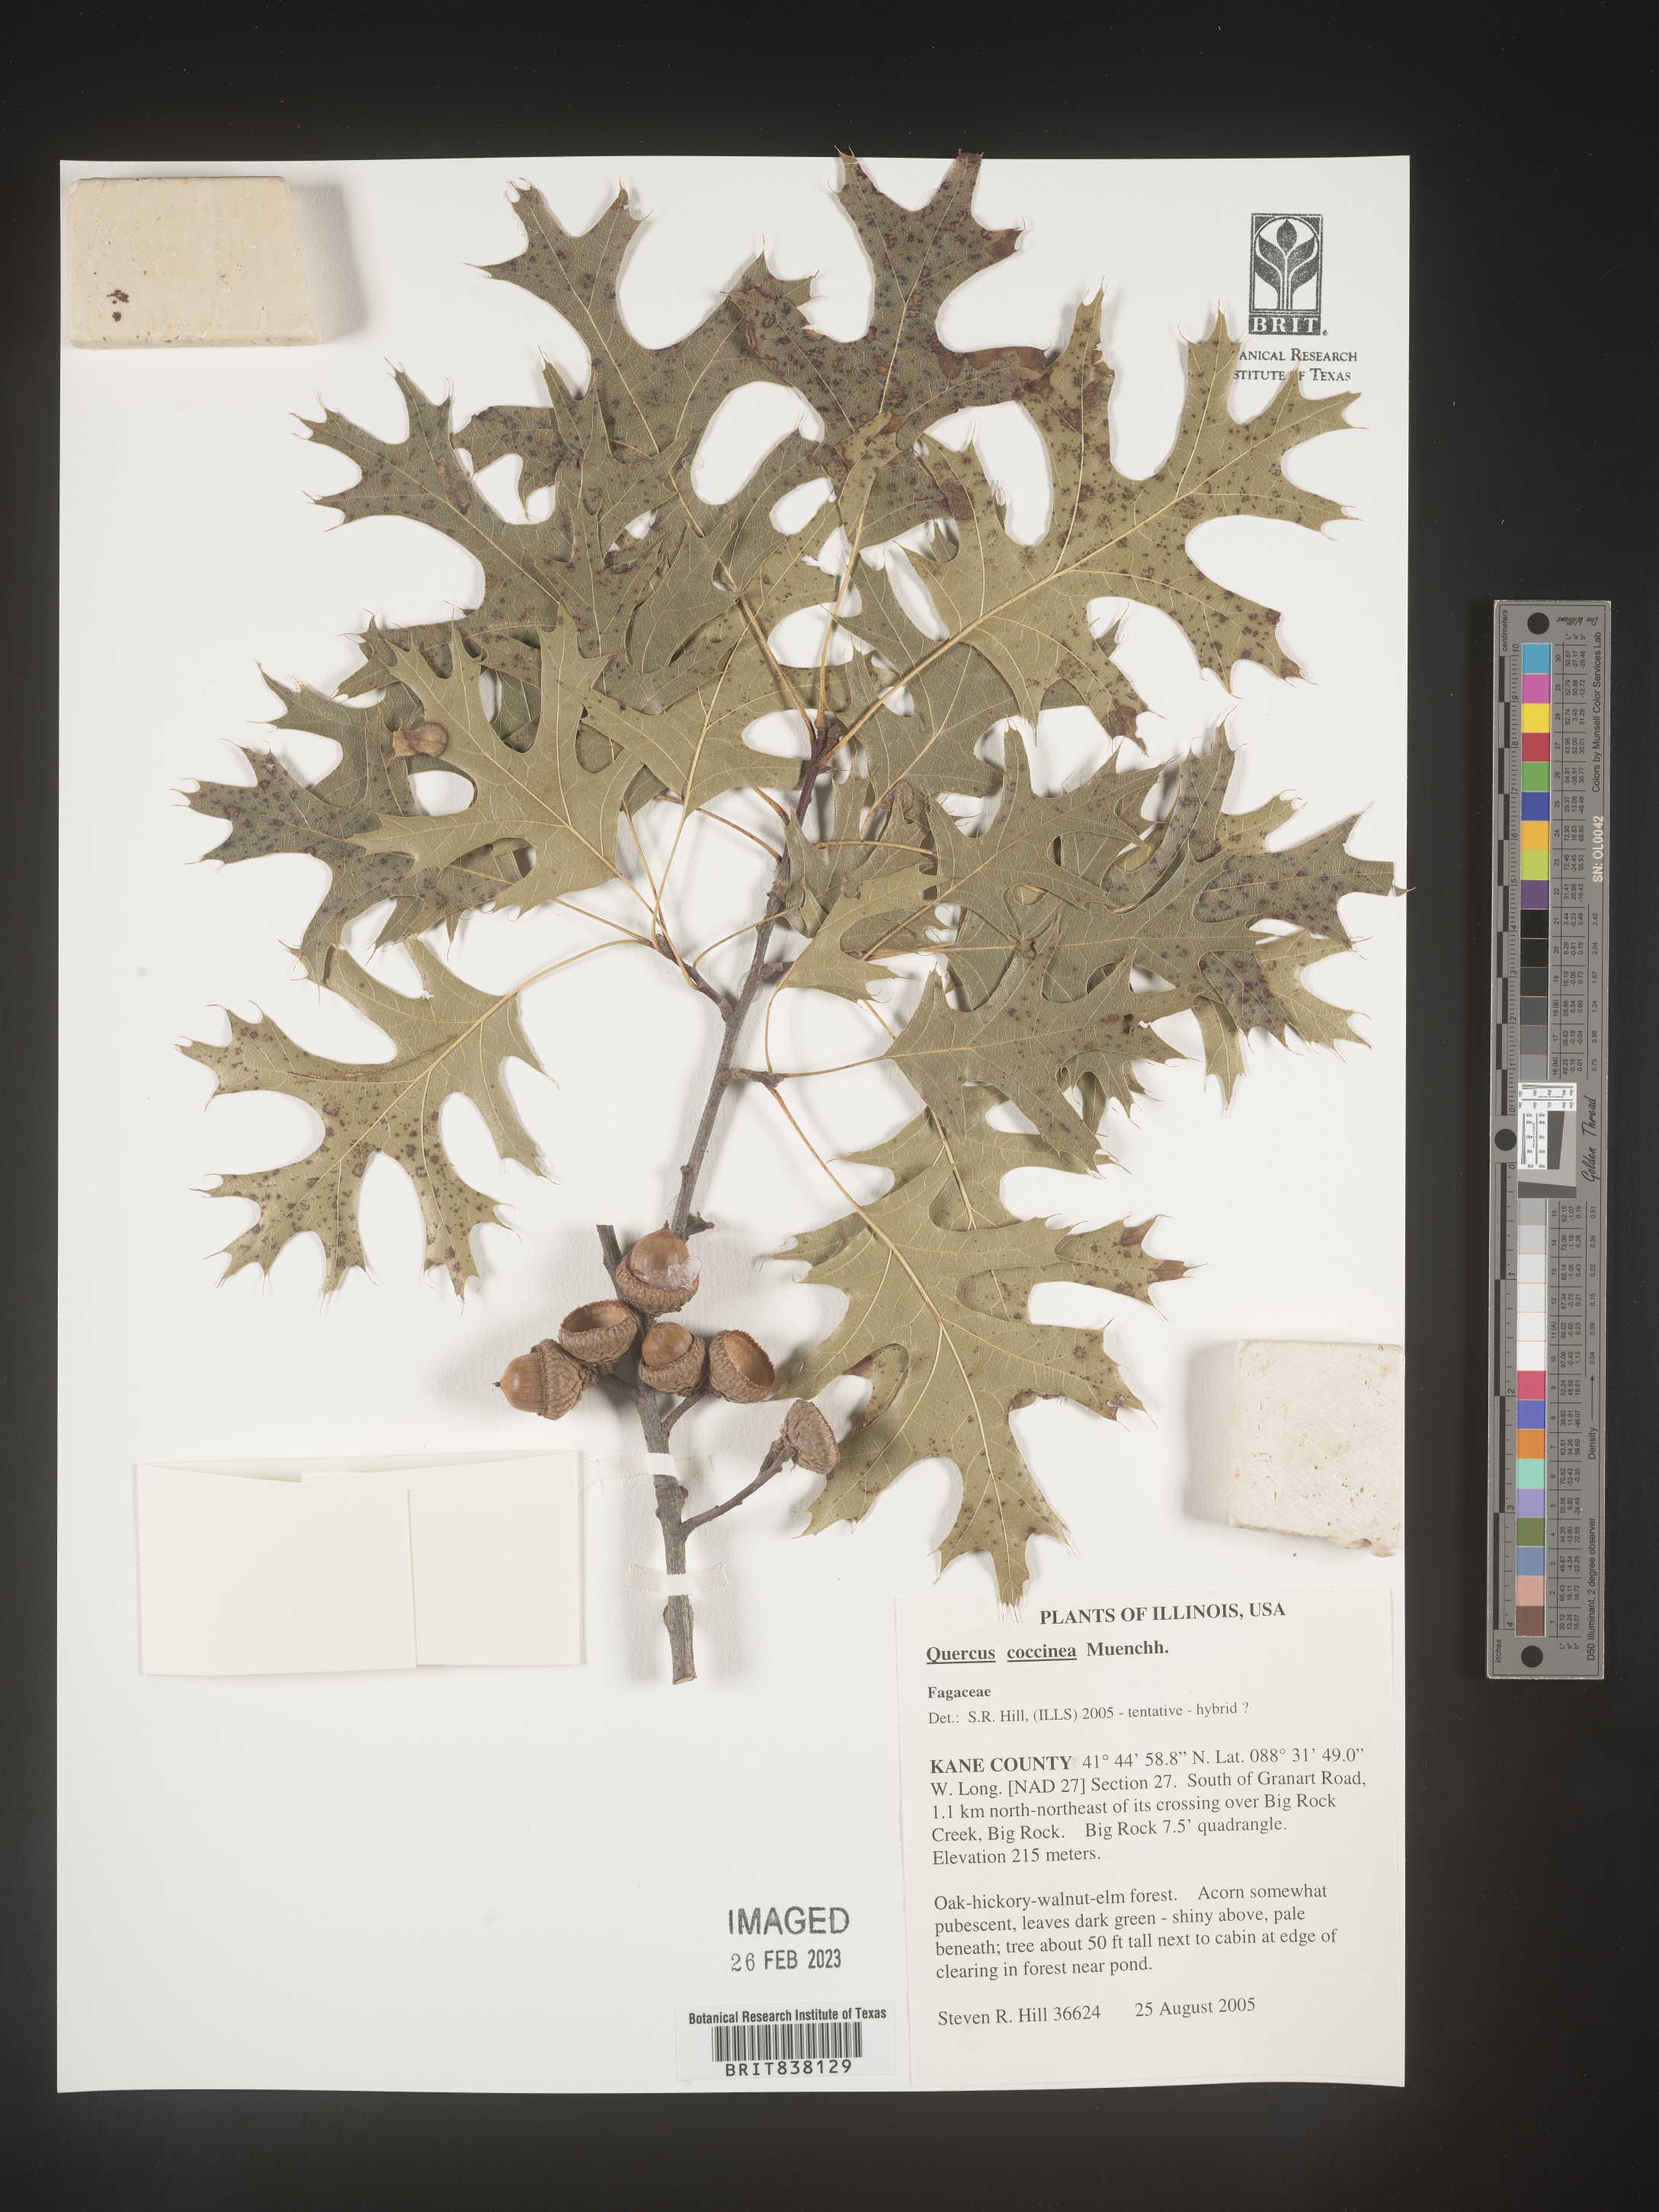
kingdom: Plantae
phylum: Tracheophyta
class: Magnoliopsida
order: Fagales
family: Fagaceae
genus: Quercus
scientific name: Quercus coccinea
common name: Scarlet oak
